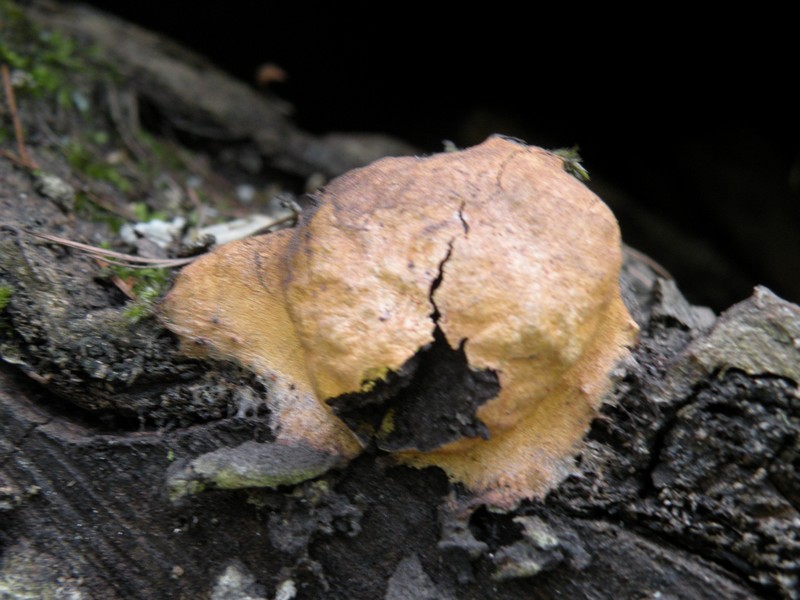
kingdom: Protozoa
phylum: Mycetozoa
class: Myxomycetes
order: Physarales
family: Physaraceae
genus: Fuligo
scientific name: Fuligo leviderma
